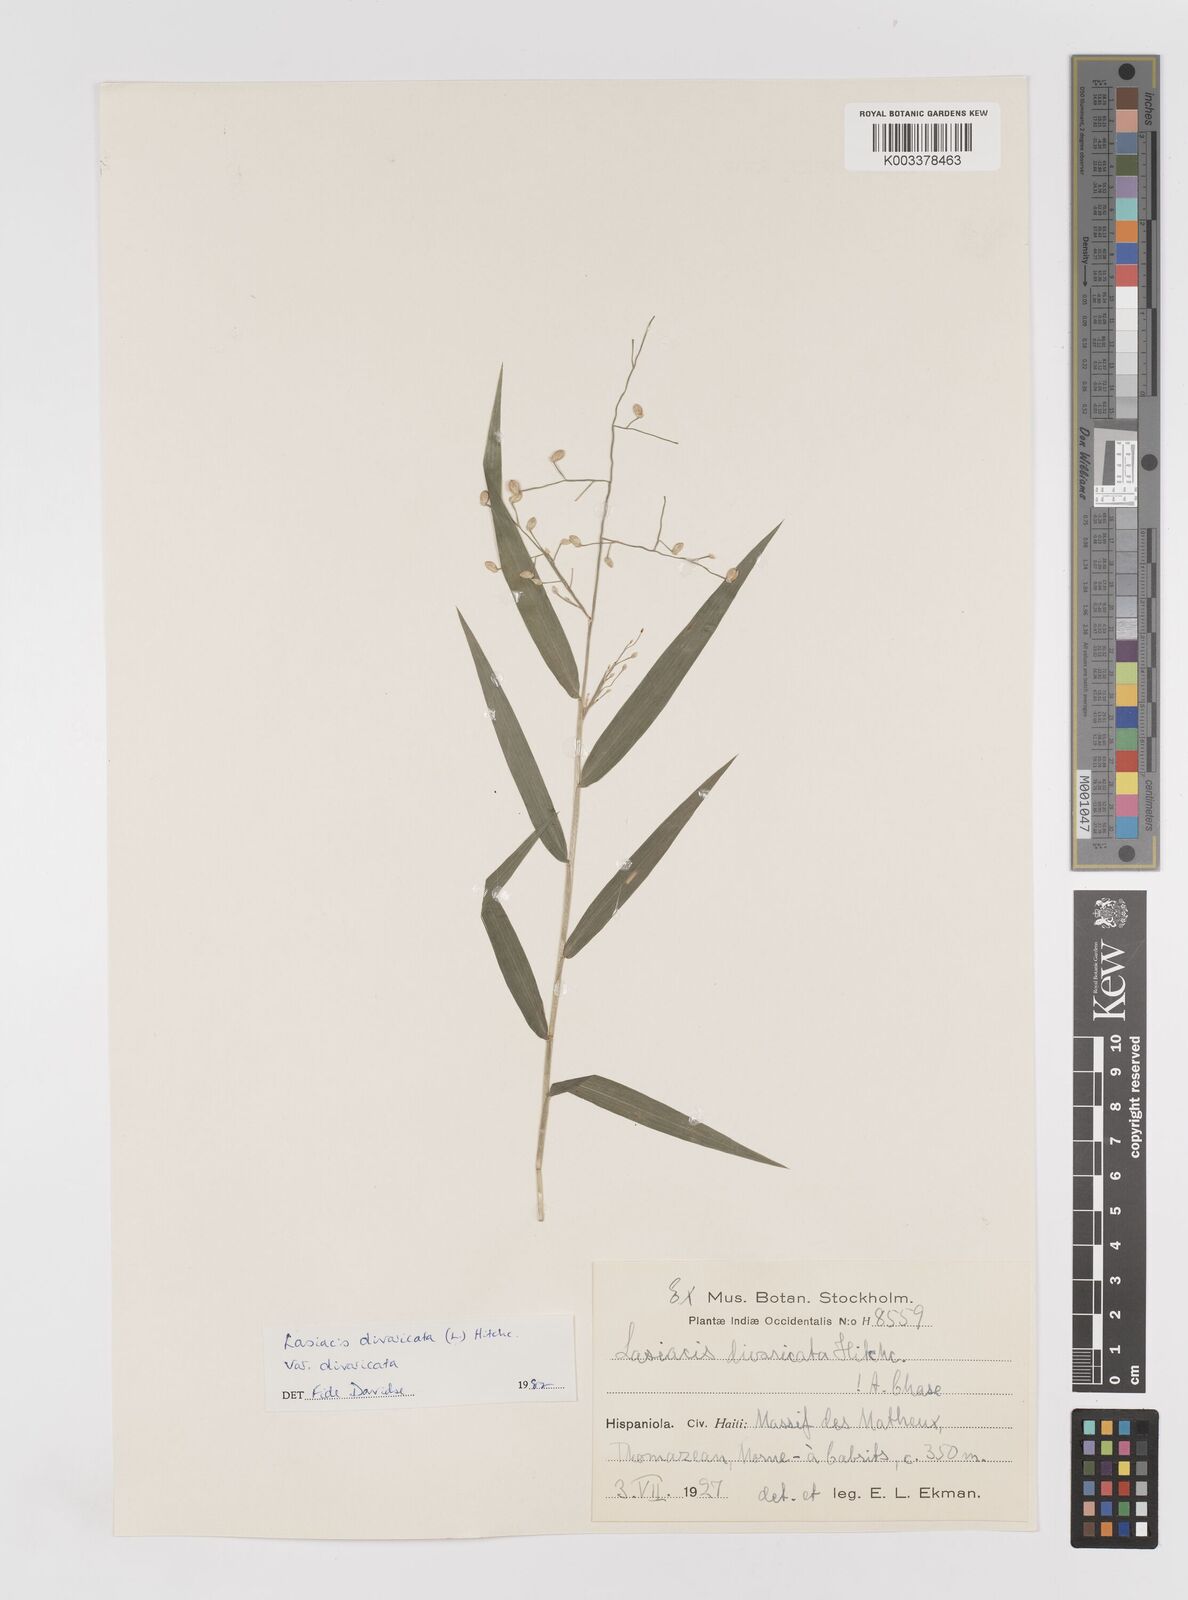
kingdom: Plantae
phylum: Tracheophyta
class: Liliopsida
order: Poales
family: Poaceae
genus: Lasiacis
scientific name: Lasiacis divaricata
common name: Smallcane
